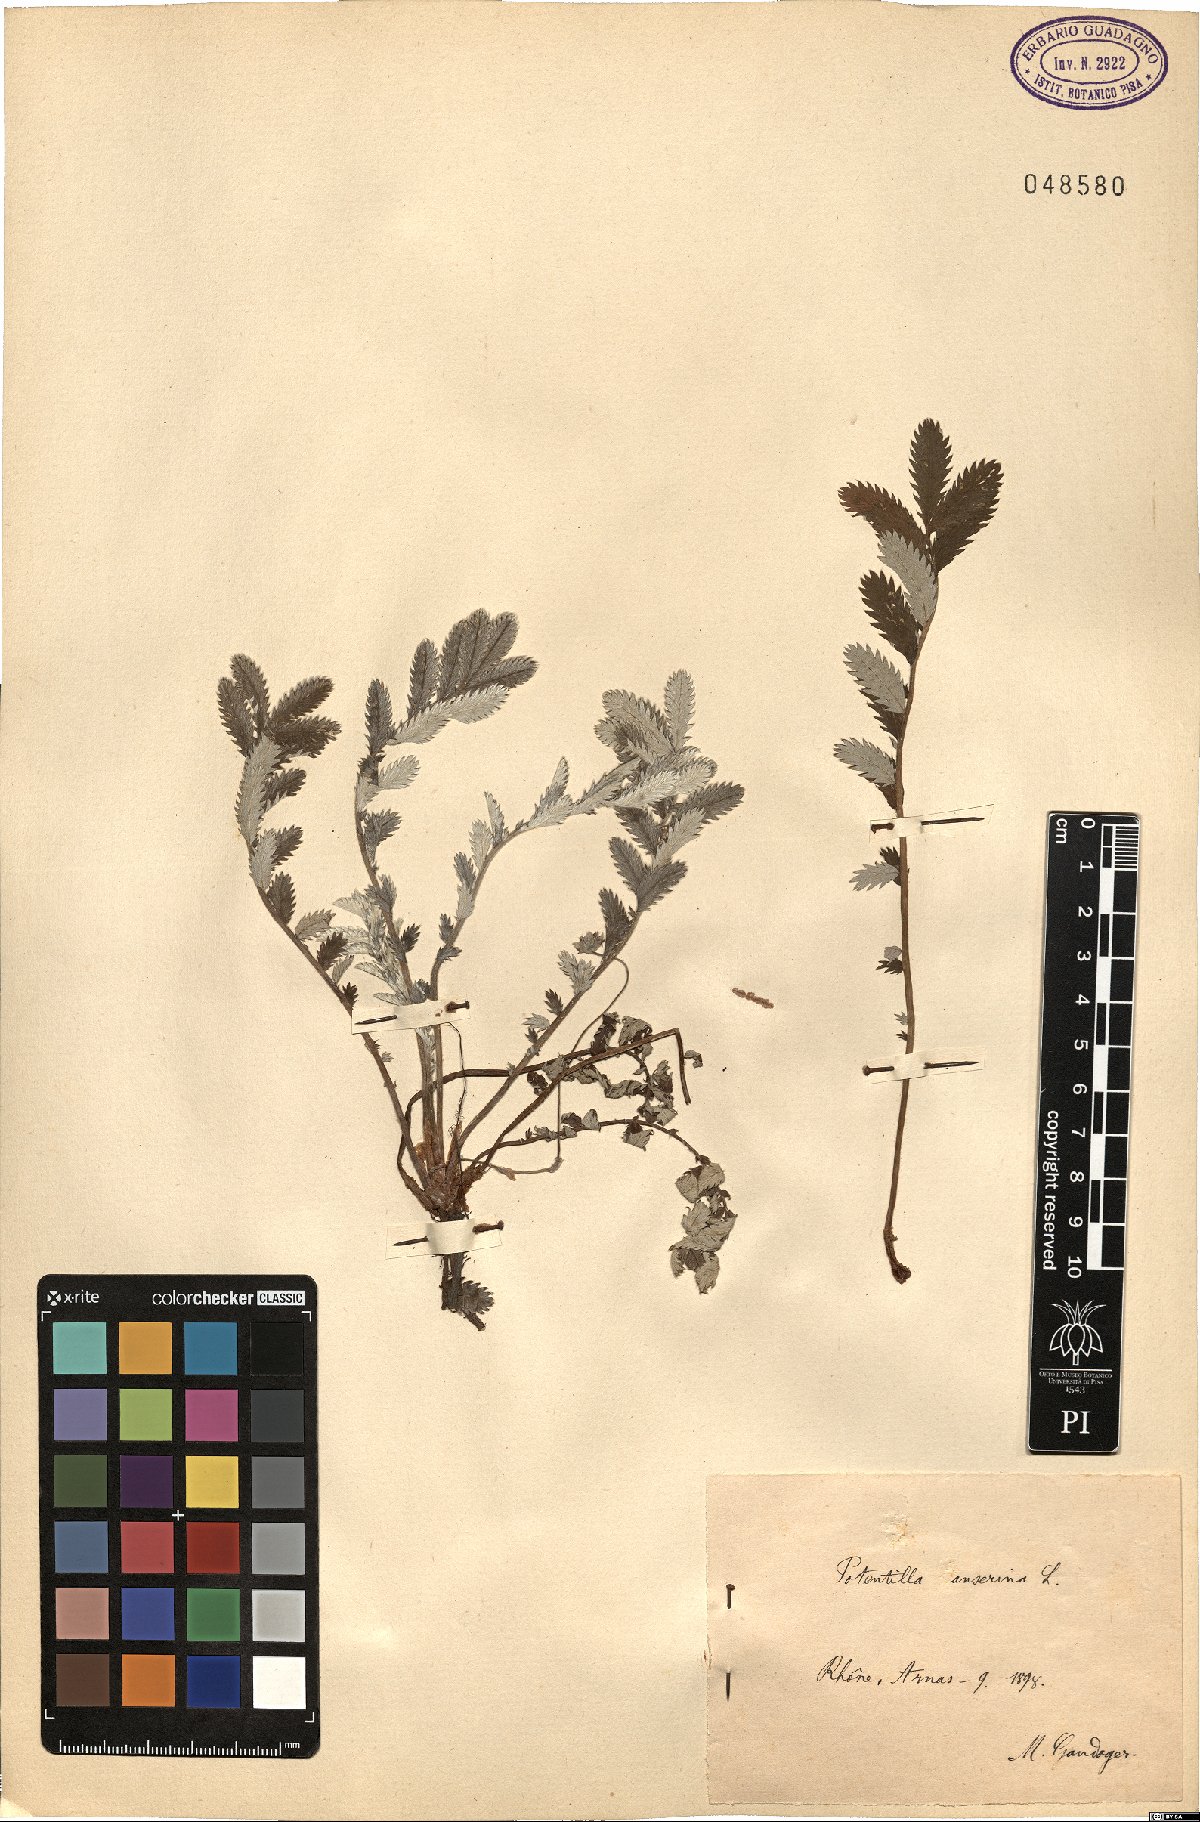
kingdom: Plantae
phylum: Tracheophyta
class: Magnoliopsida
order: Rosales
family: Rosaceae
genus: Argentina
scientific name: Argentina anserina
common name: Common silverweed
